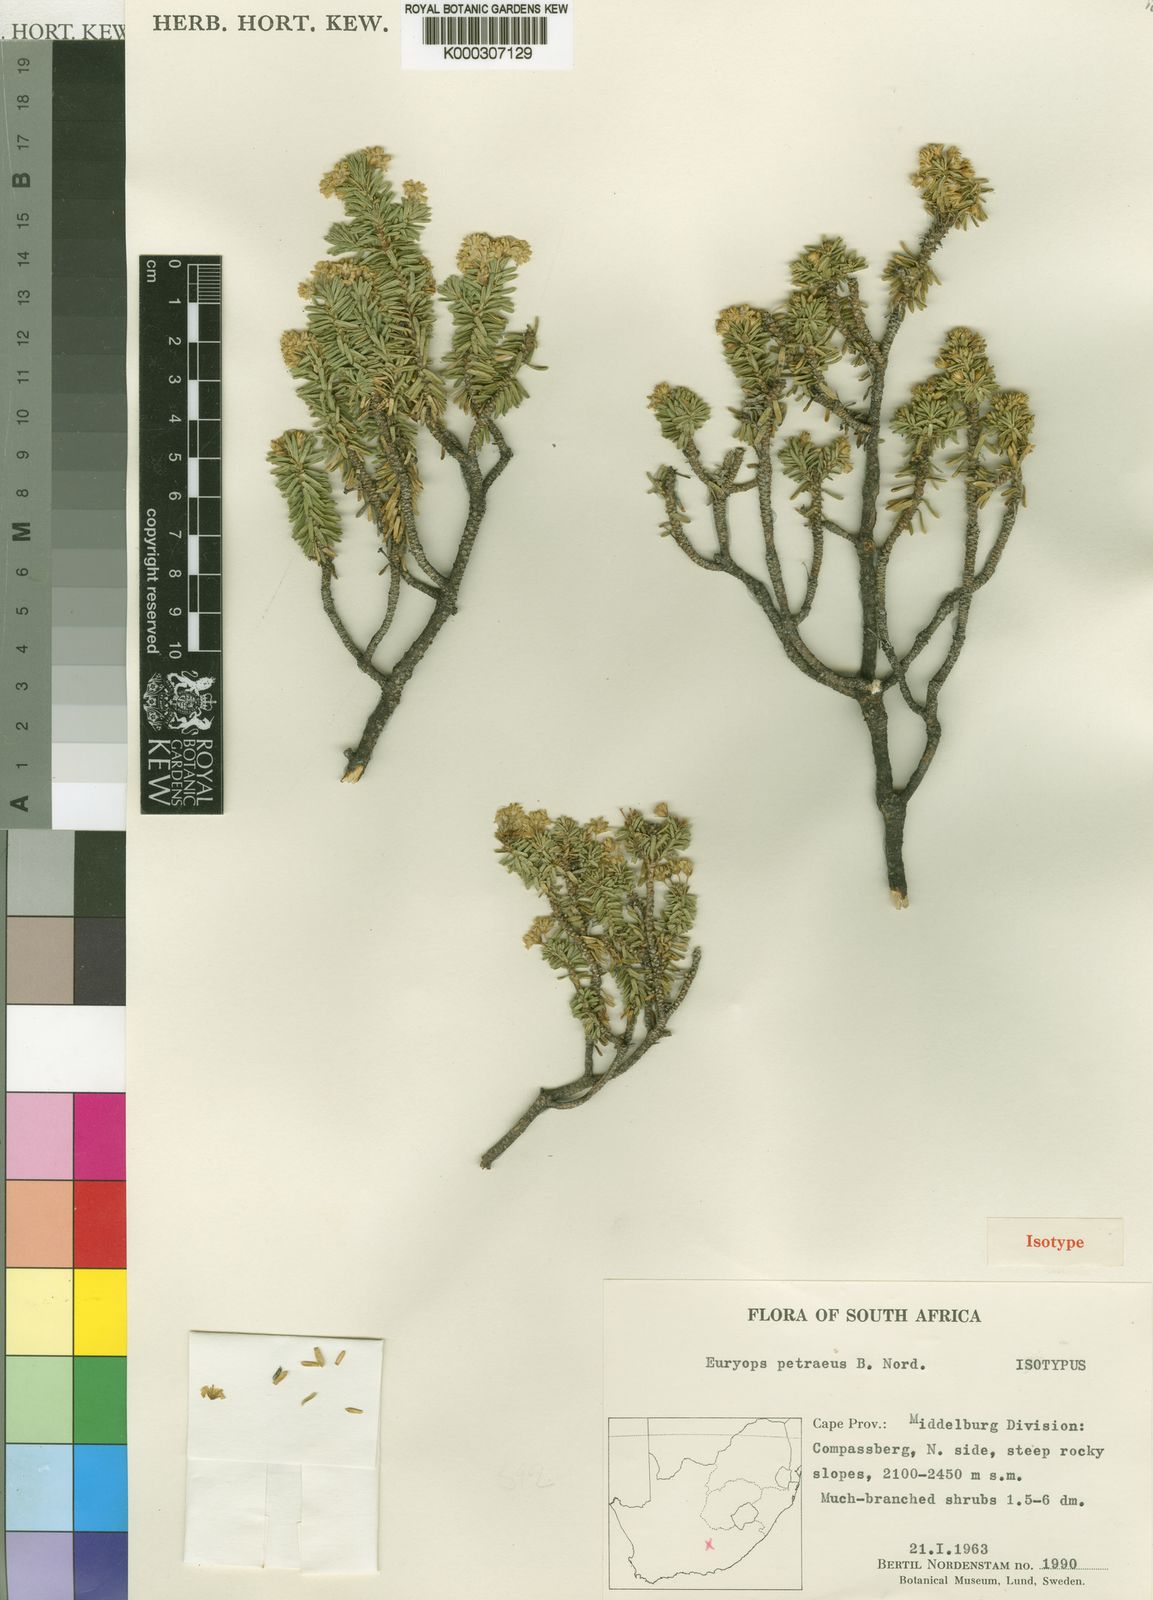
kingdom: Plantae
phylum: Tracheophyta
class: Magnoliopsida
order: Asterales
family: Asteraceae
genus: Euryops
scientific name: Euryops petraeus
